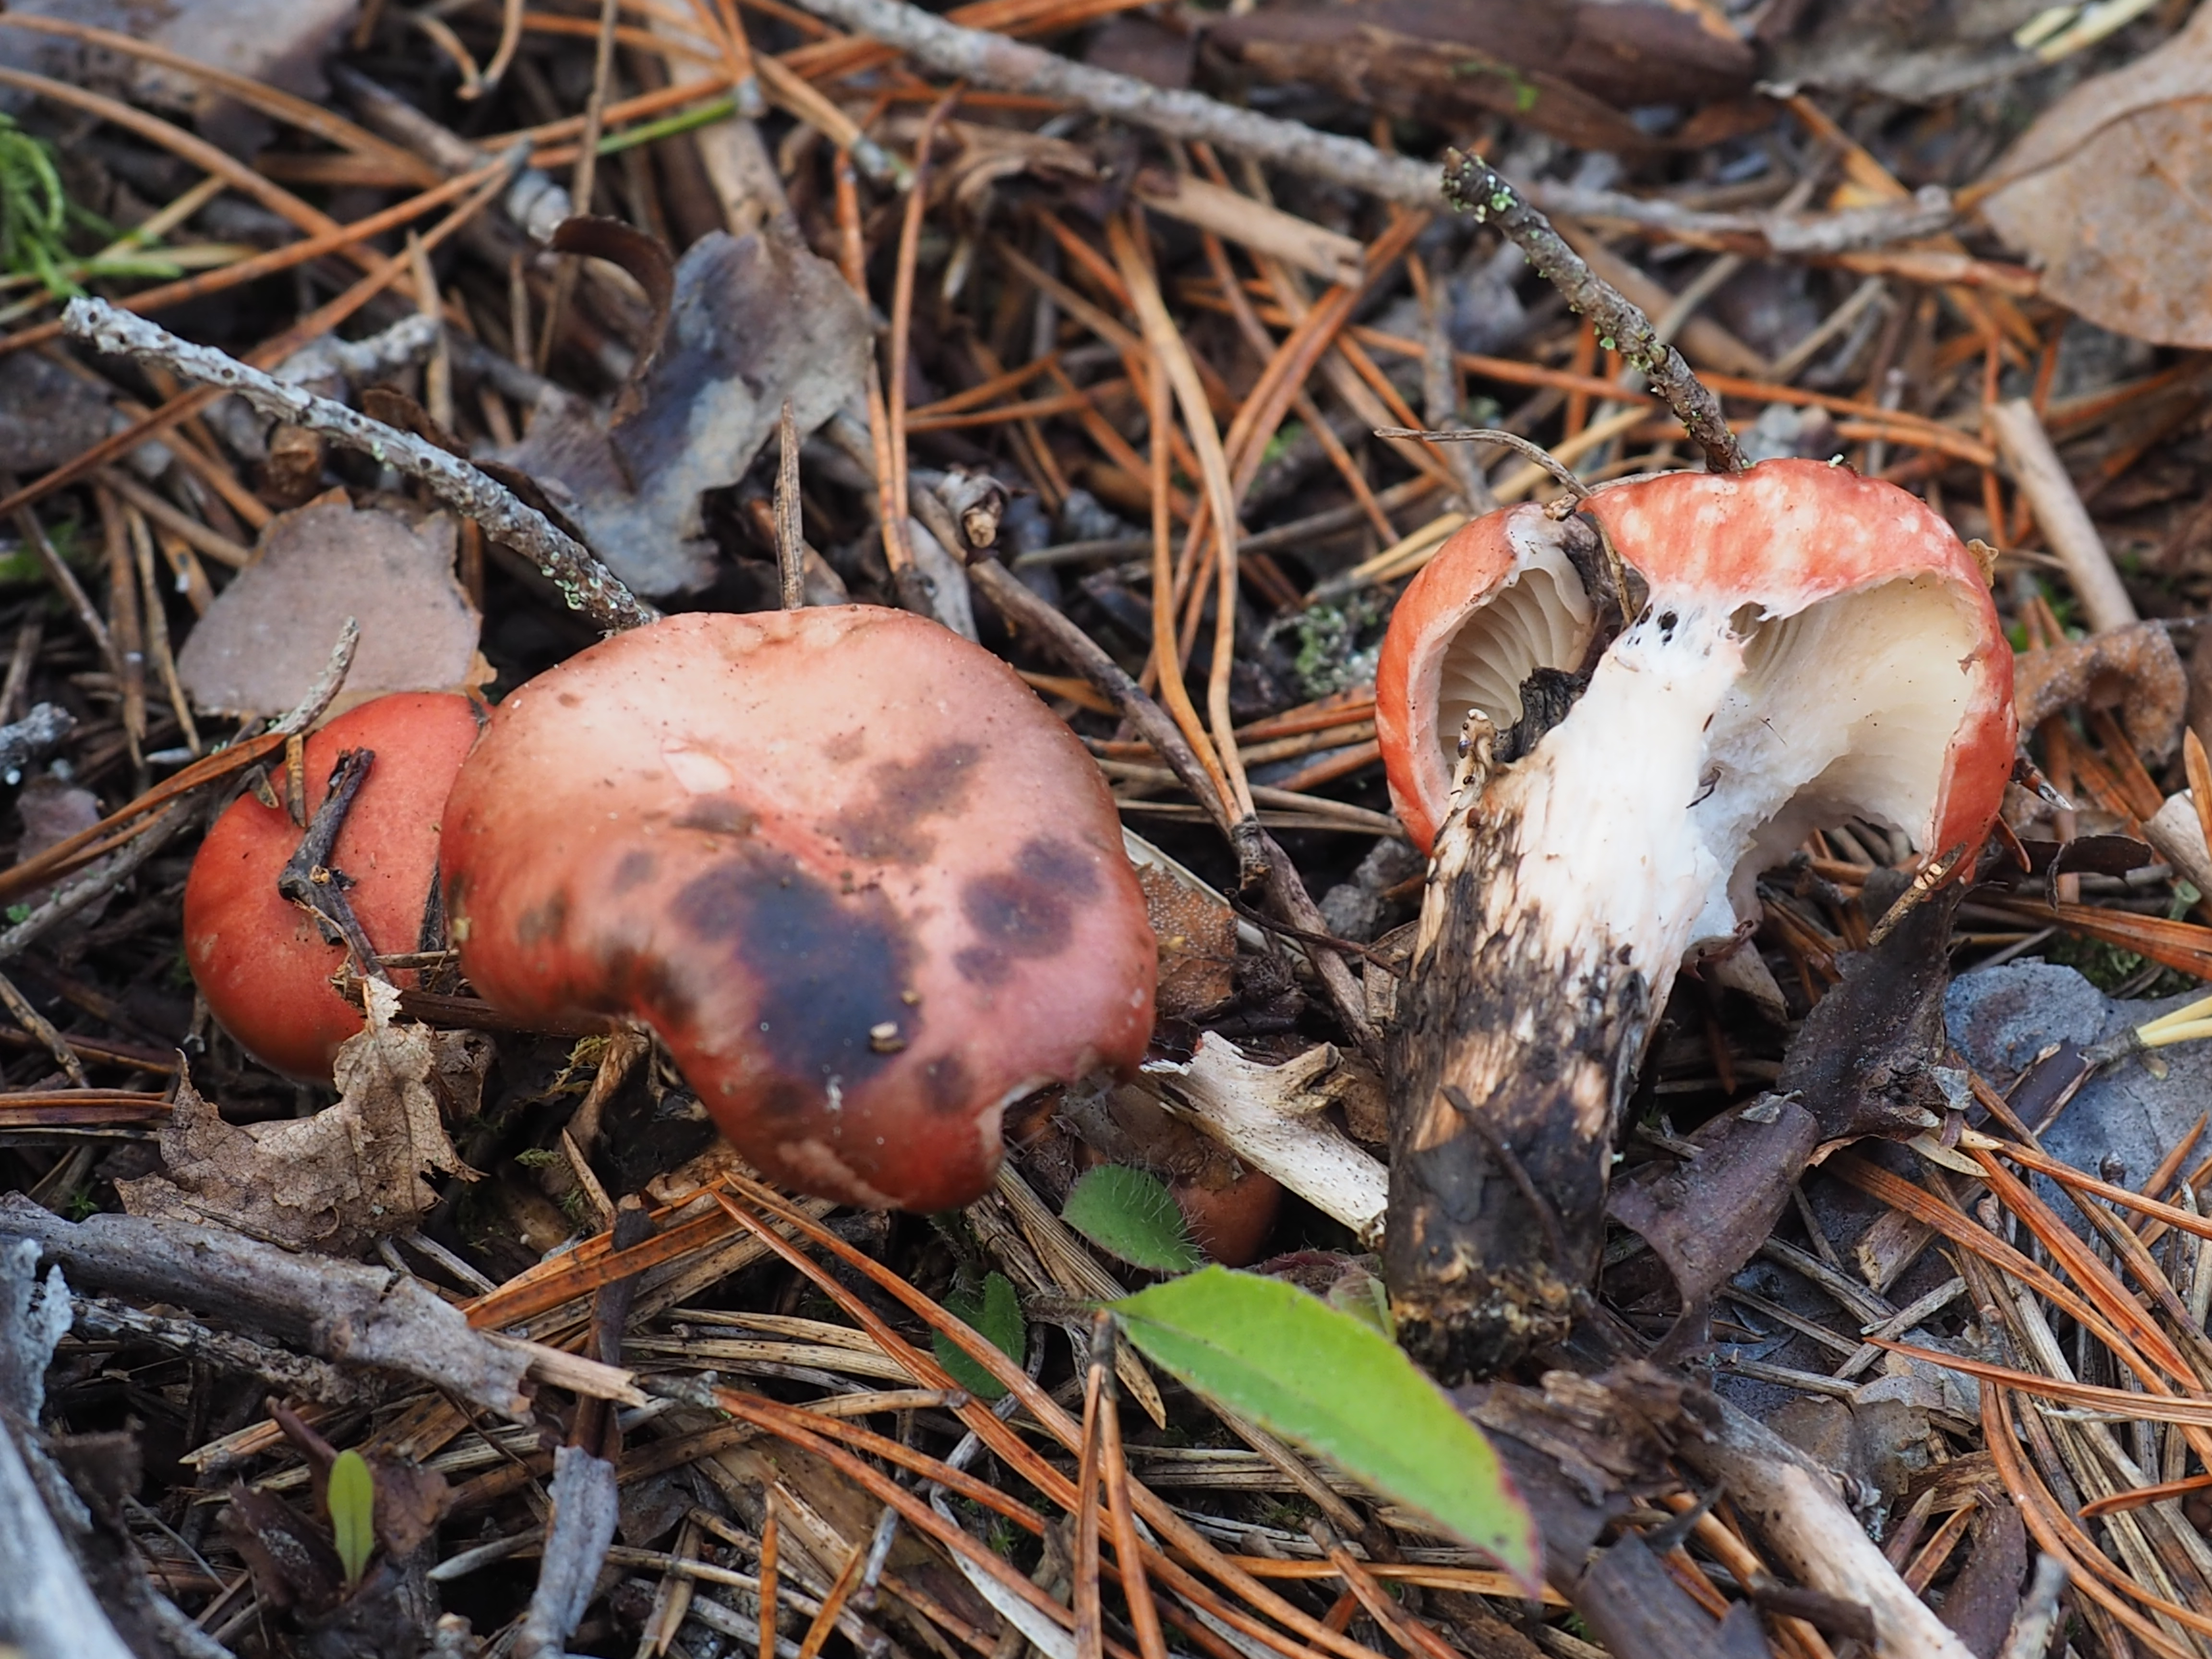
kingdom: Fungi
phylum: Basidiomycota
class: Agaricomycetes
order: Boletales
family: Gomphidiaceae
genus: Gomphidius
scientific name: Gomphidius roseus
